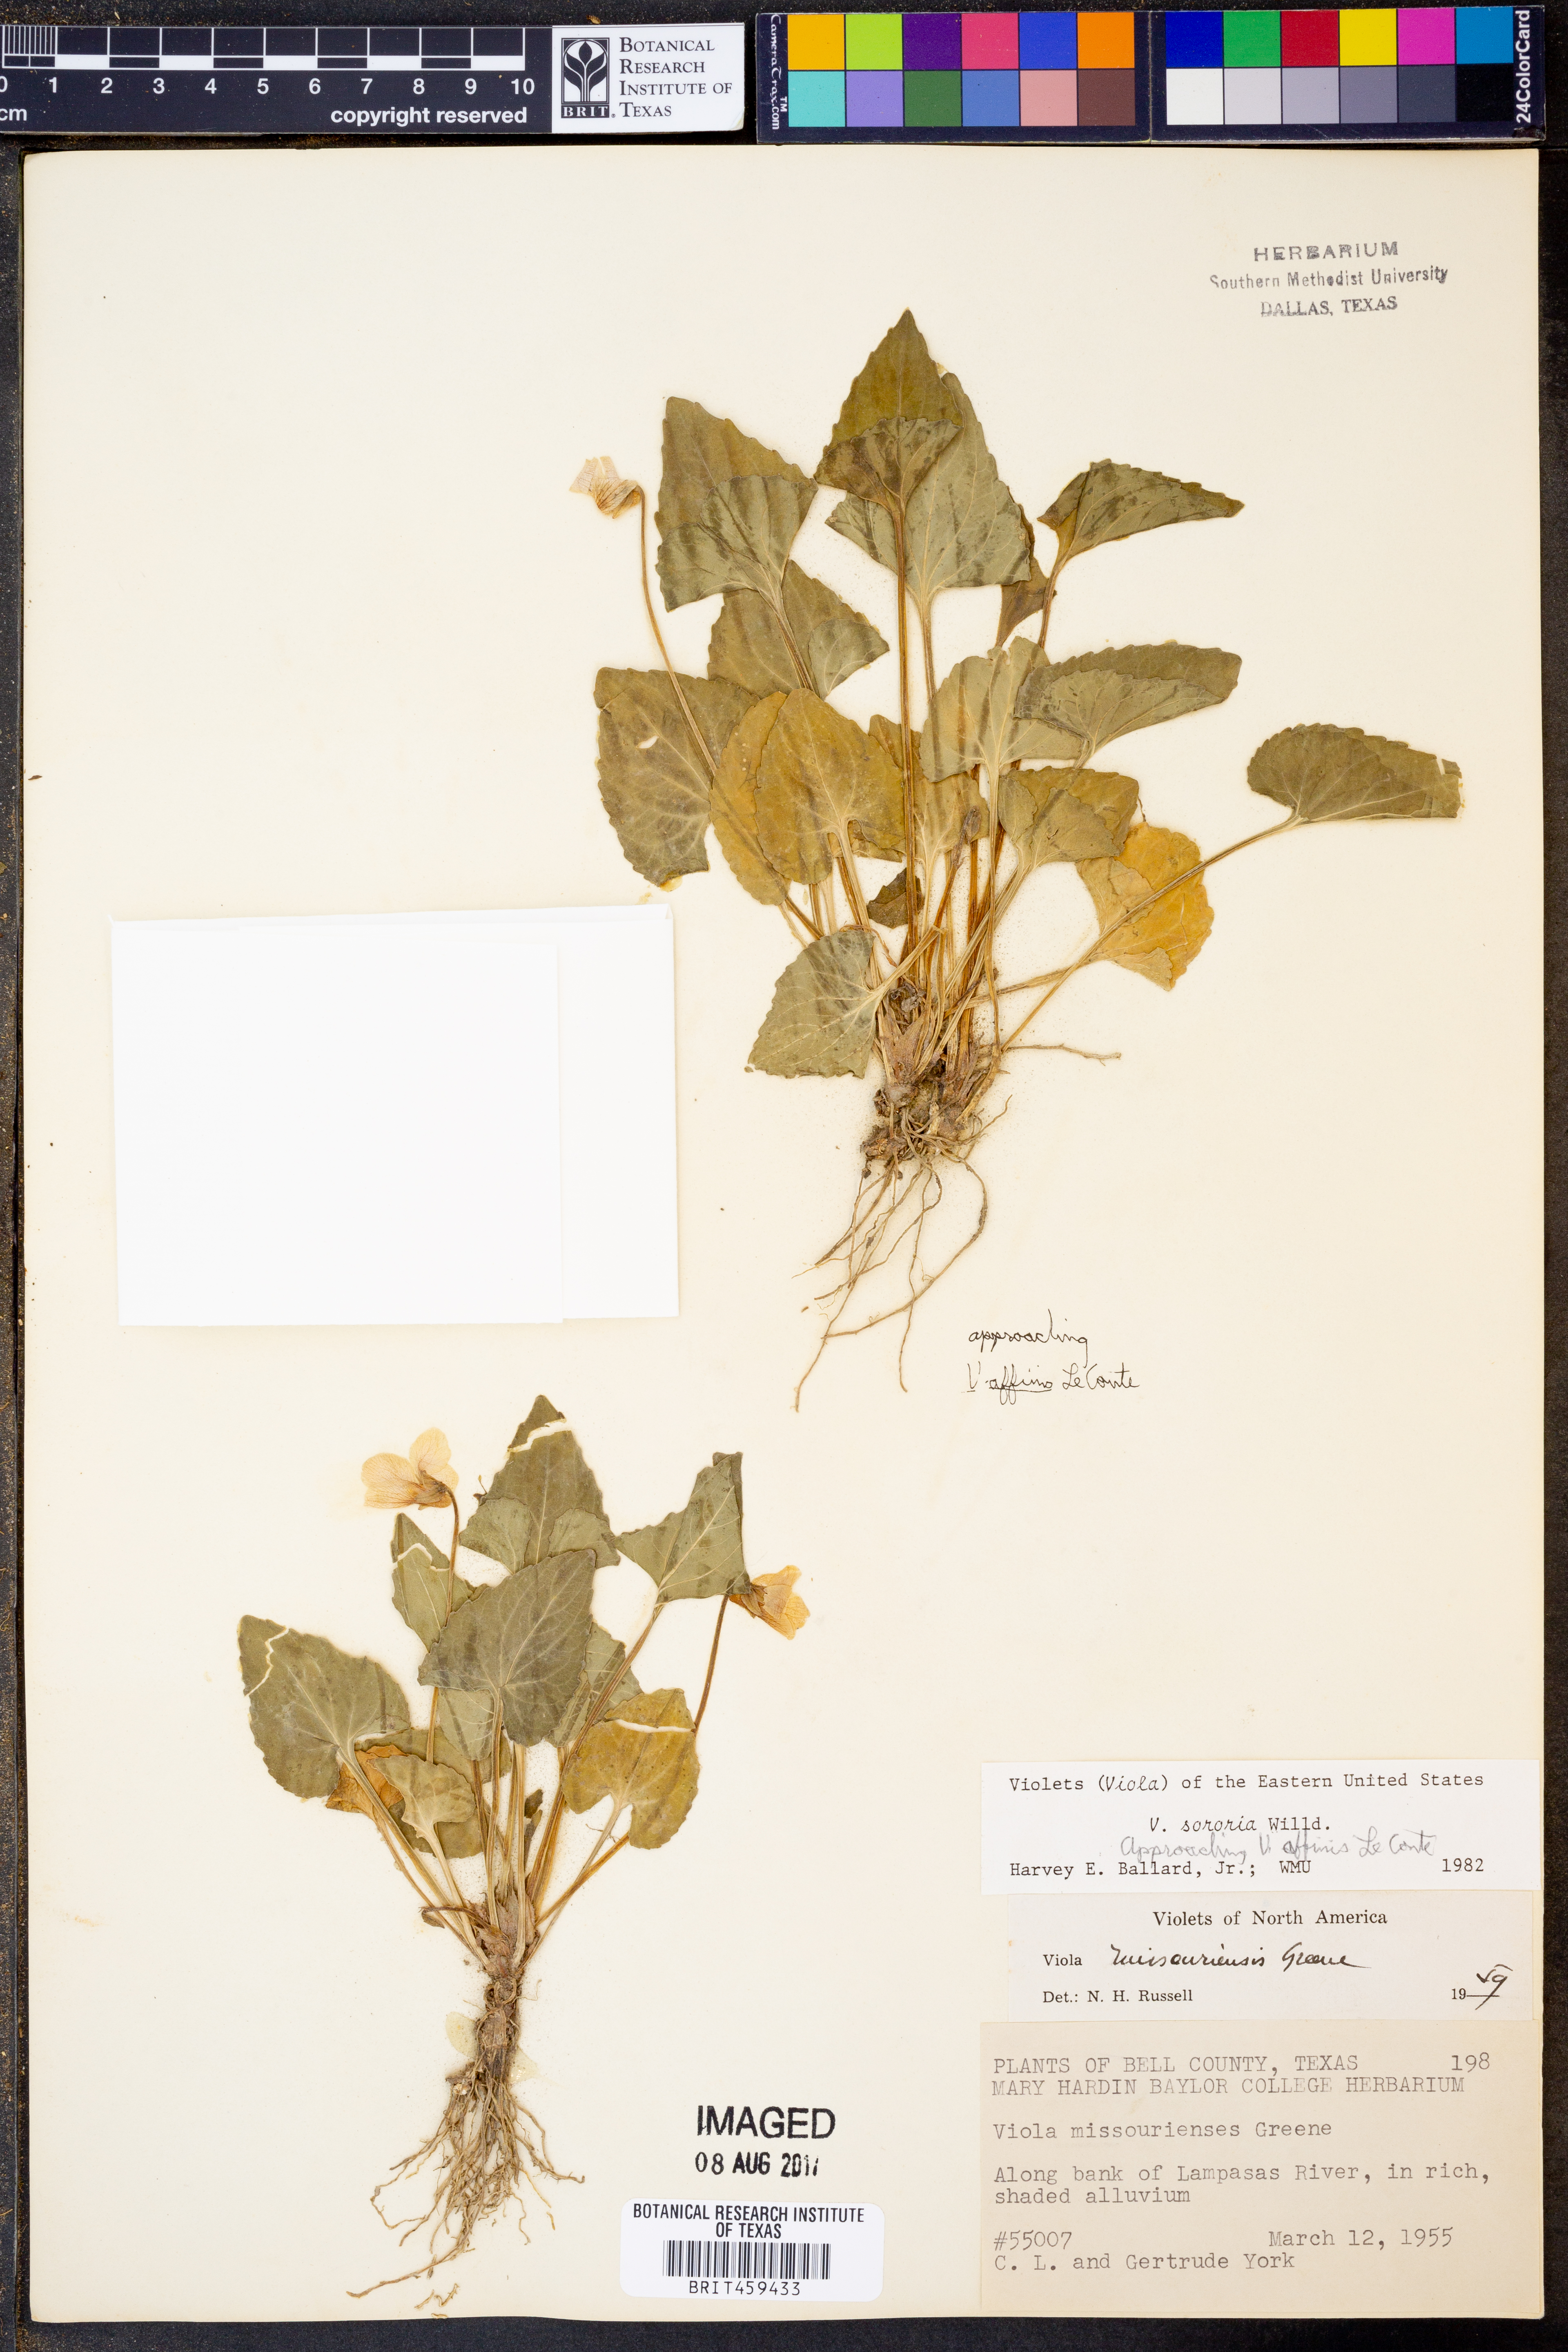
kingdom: Plantae
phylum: Tracheophyta
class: Magnoliopsida
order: Malpighiales
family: Violaceae
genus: Viola
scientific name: Viola sororia
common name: Dooryard violet
